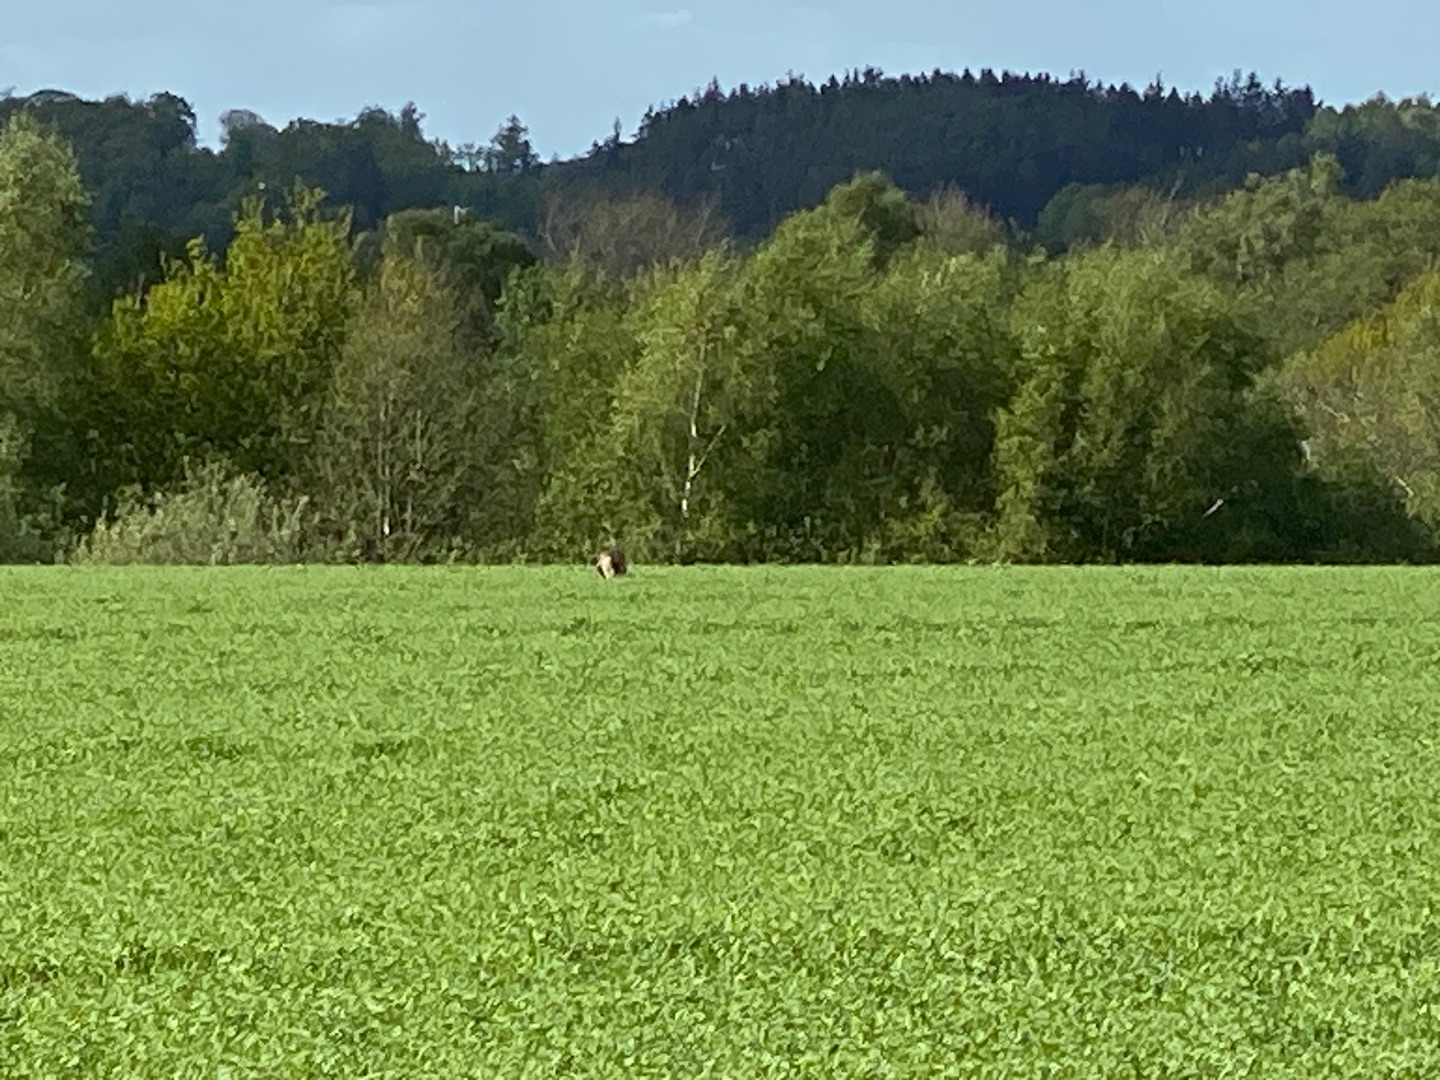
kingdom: Animalia
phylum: Chordata
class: Mammalia
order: Carnivora
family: Canidae
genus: Nyctereutes
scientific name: Nyctereutes procyonoides
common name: Mårhund
